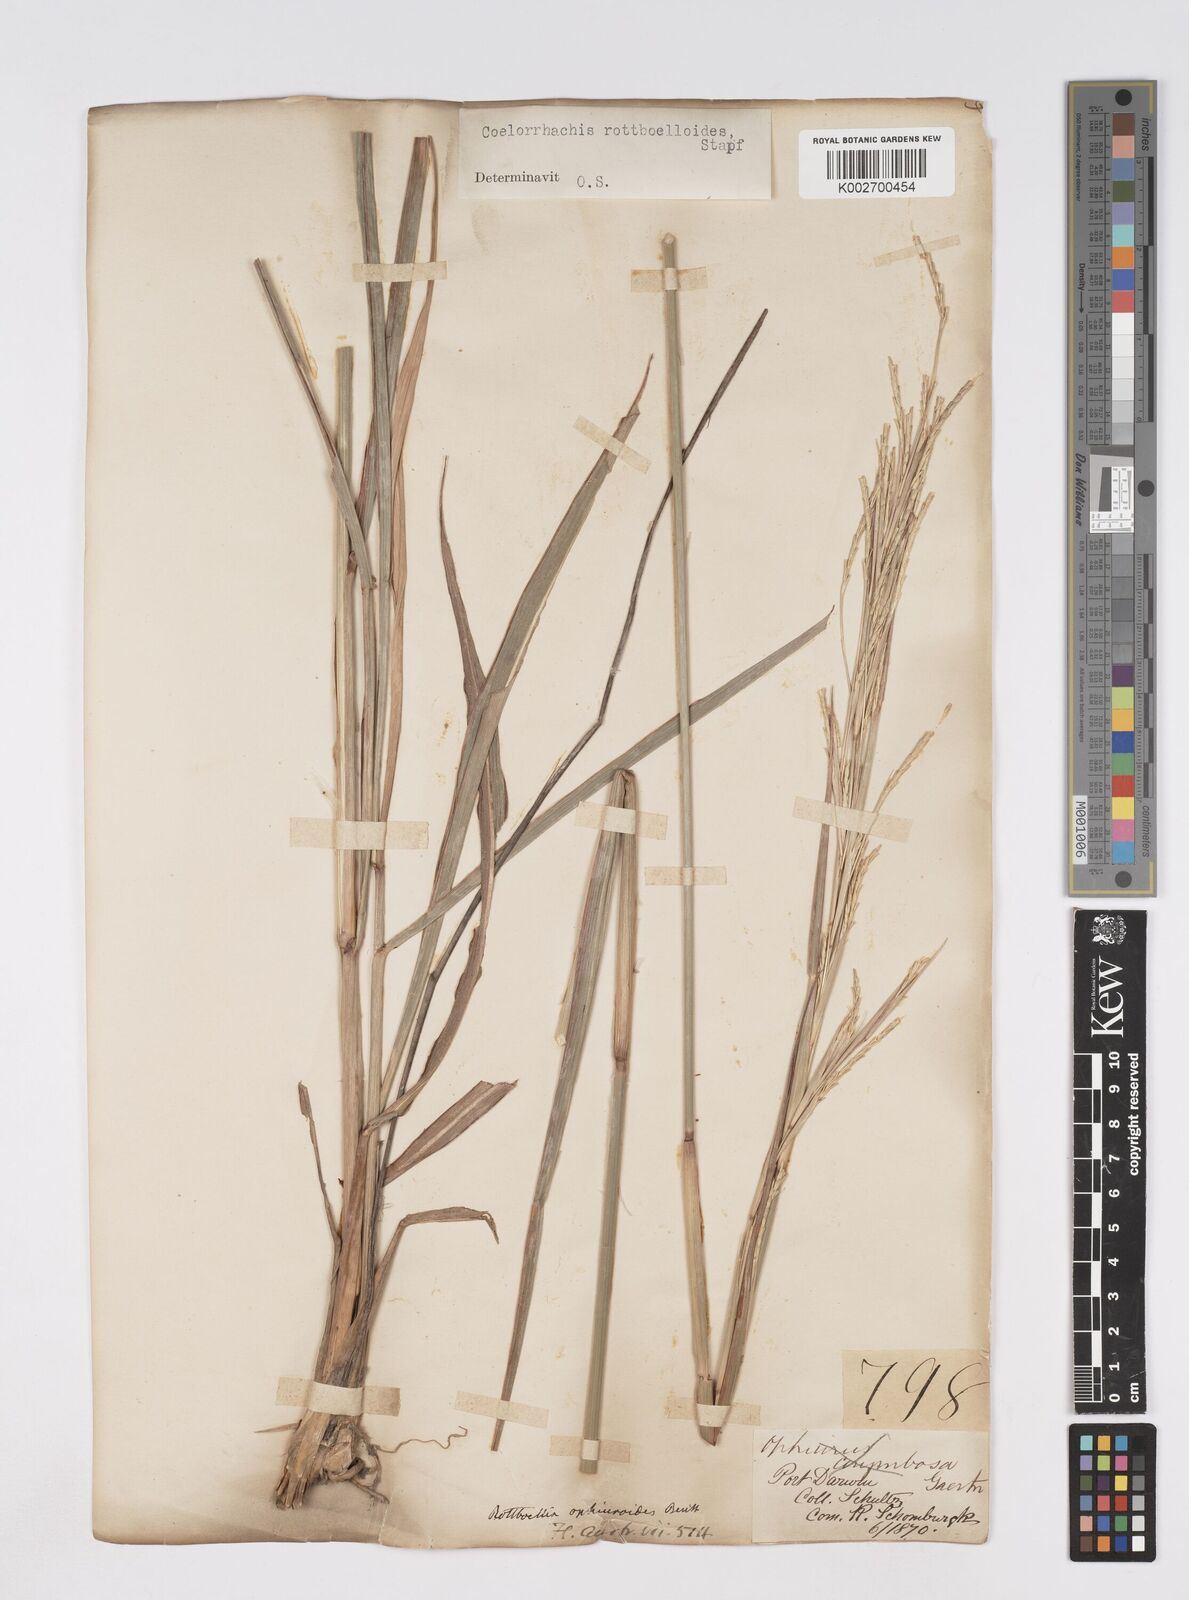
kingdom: Plantae
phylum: Tracheophyta
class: Liliopsida
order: Poales
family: Poaceae
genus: Rottboellia
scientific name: Rottboellia rottboellioides
